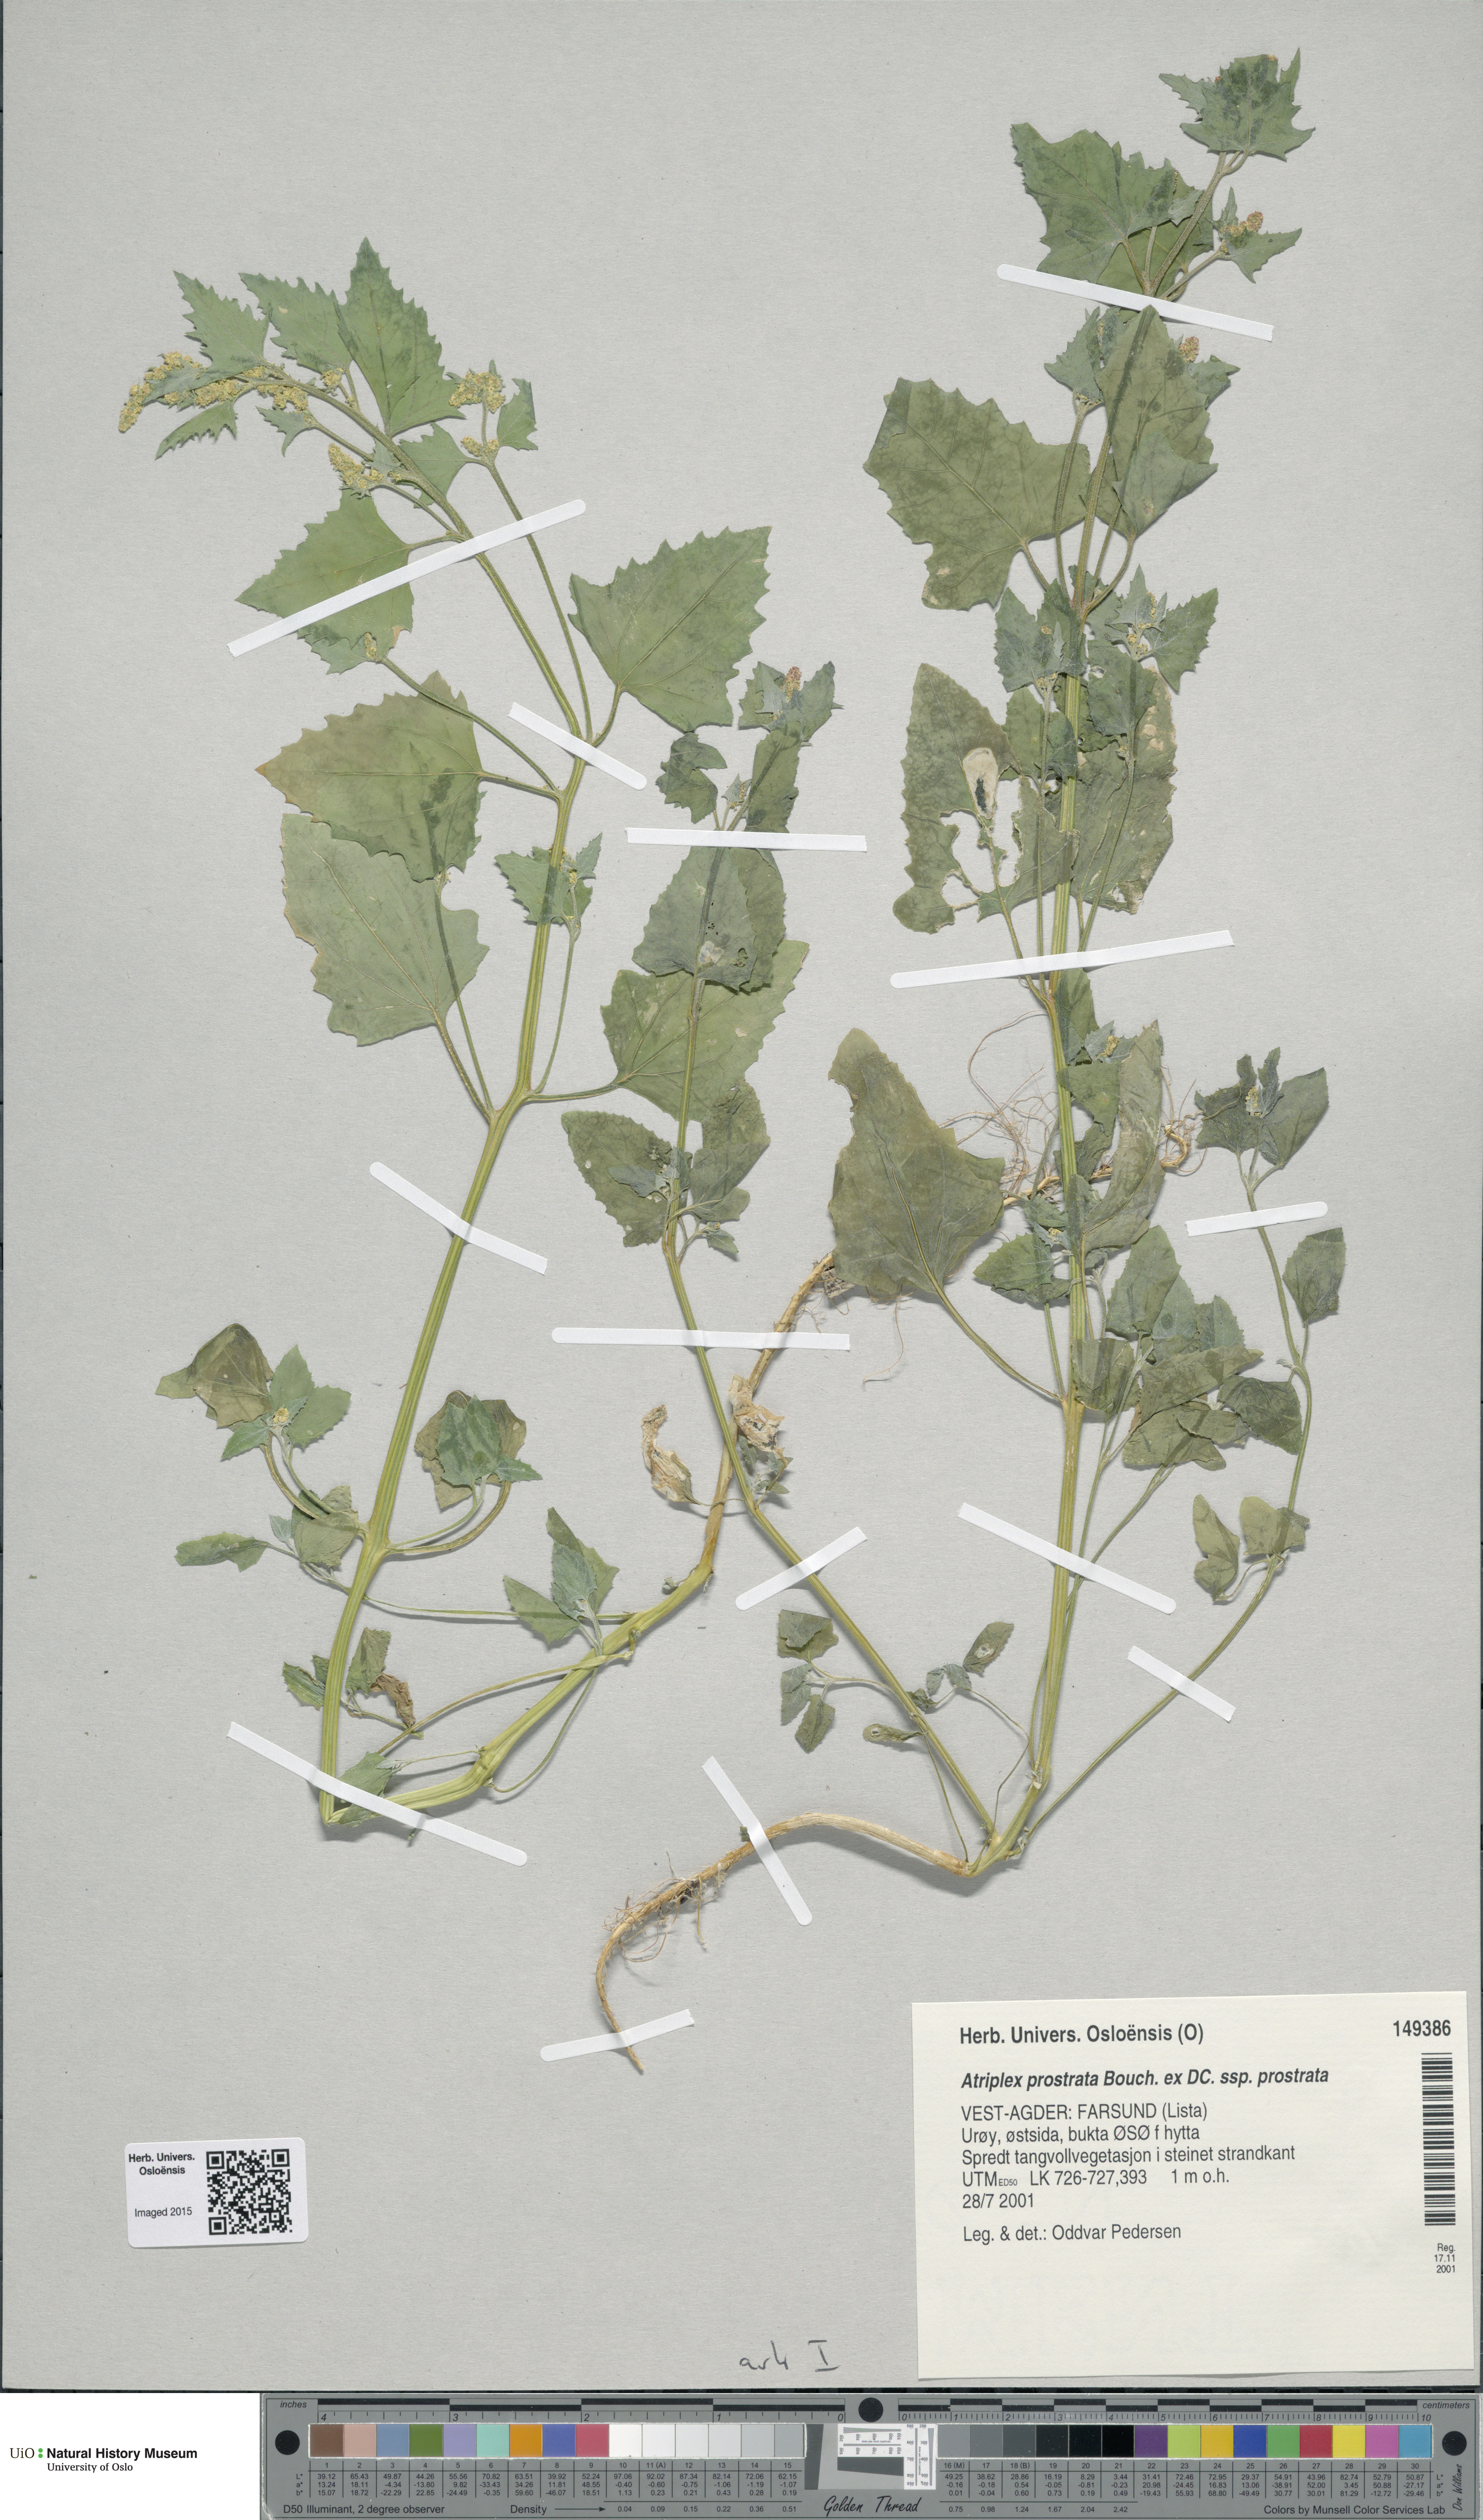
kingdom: Plantae
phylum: Tracheophyta
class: Magnoliopsida
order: Caryophyllales
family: Amaranthaceae
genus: Atriplex
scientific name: Atriplex prostrata
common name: Spear-leaved orache
